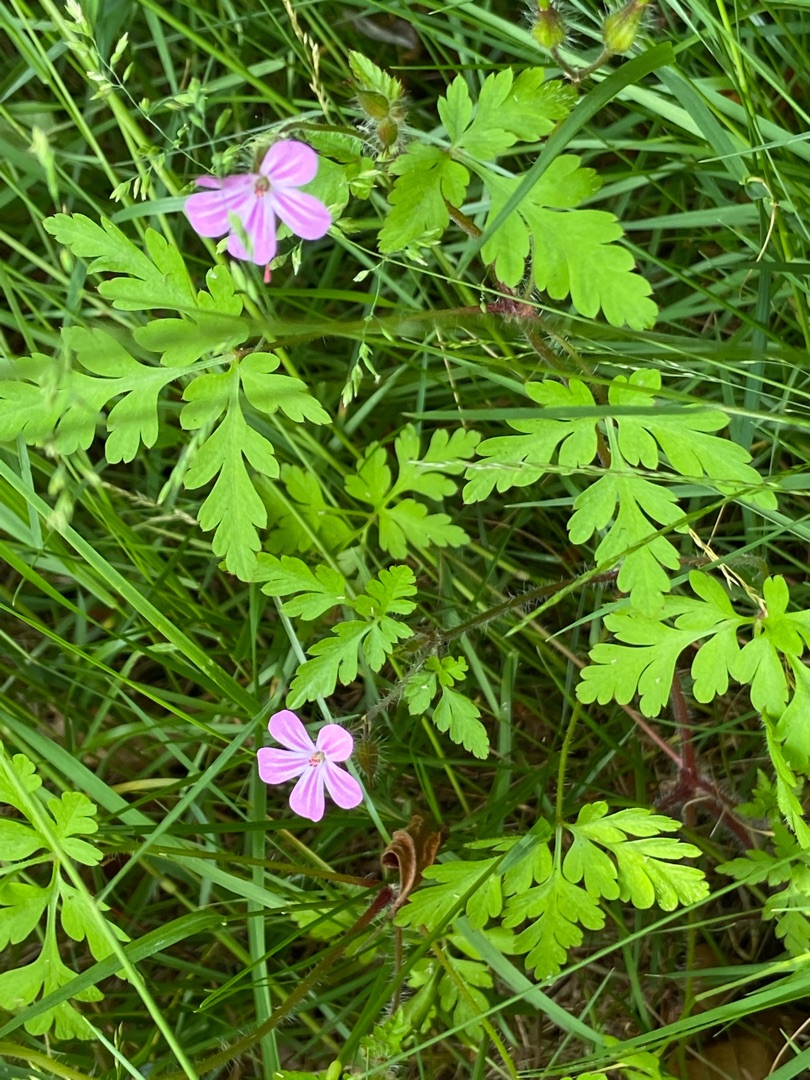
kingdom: Plantae
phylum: Tracheophyta
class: Magnoliopsida
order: Geraniales
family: Geraniaceae
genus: Geranium
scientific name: Geranium robertianum
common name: Stinkende storkenæb
